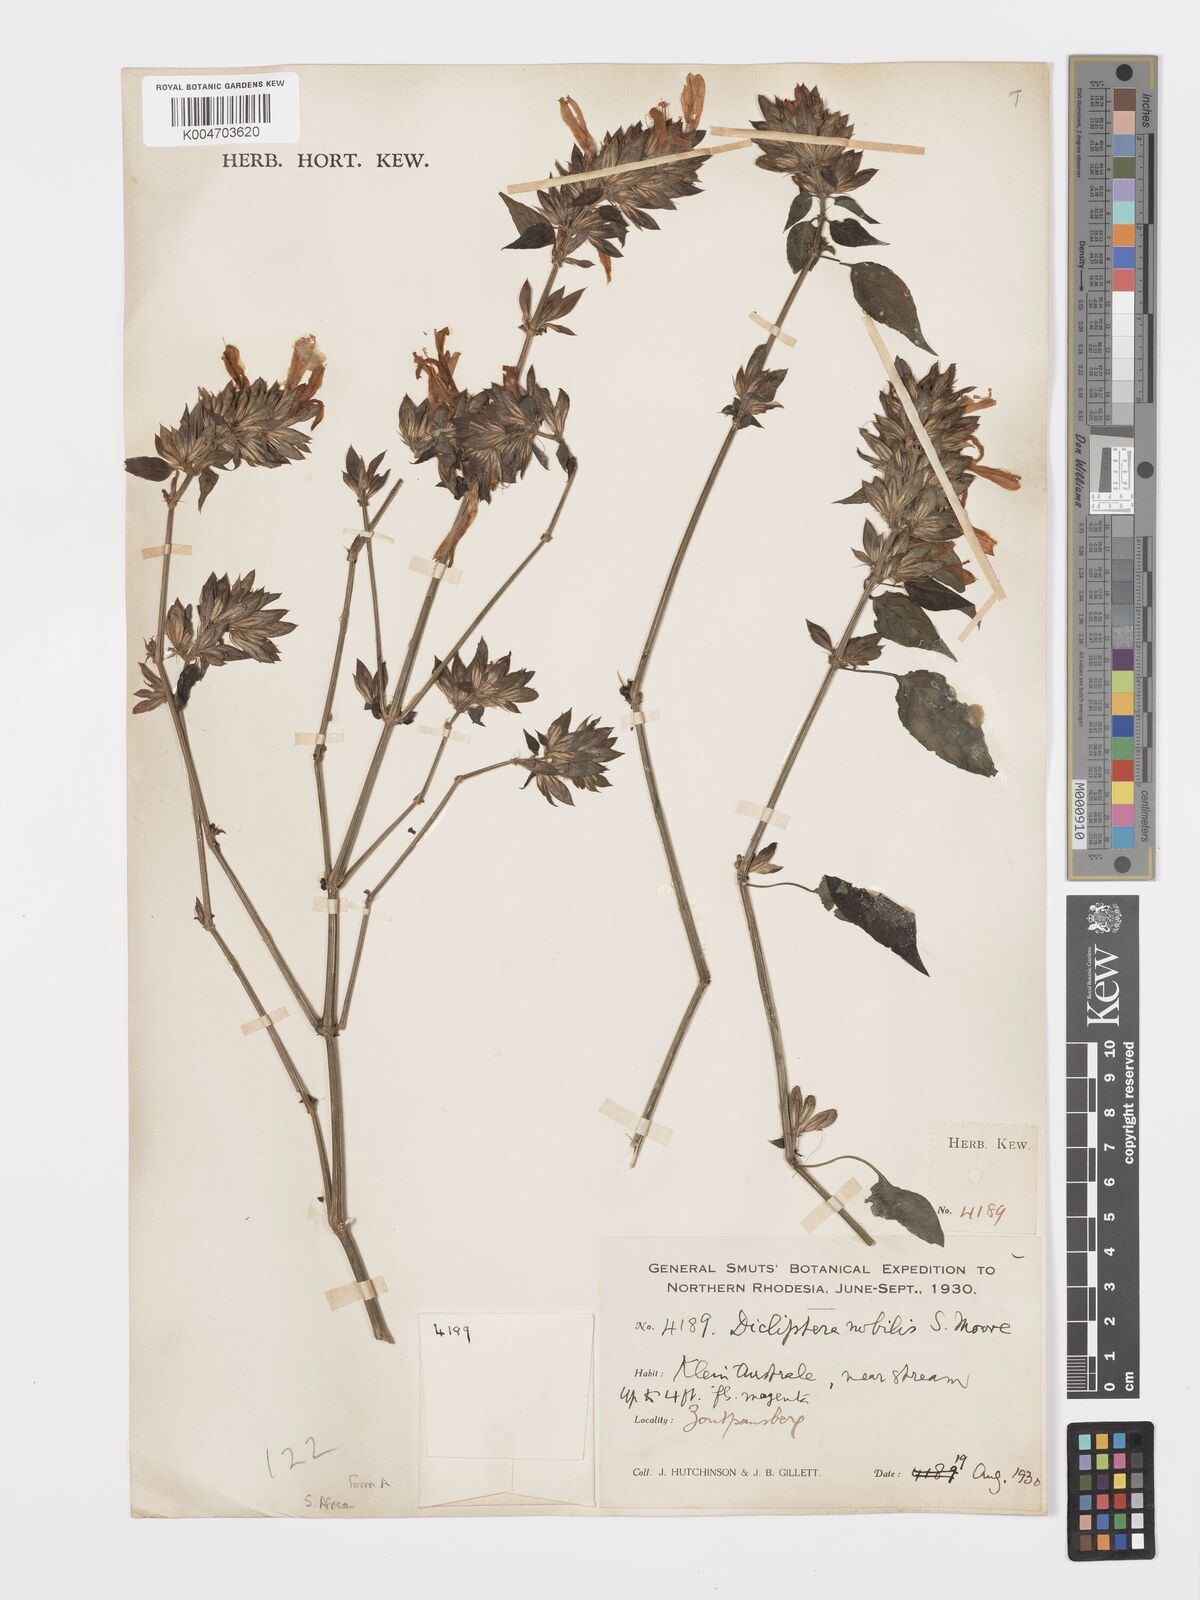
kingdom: Plantae
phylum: Tracheophyta
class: Magnoliopsida
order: Lamiales
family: Acanthaceae
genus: Dicliptera
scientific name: Dicliptera clinopodia
